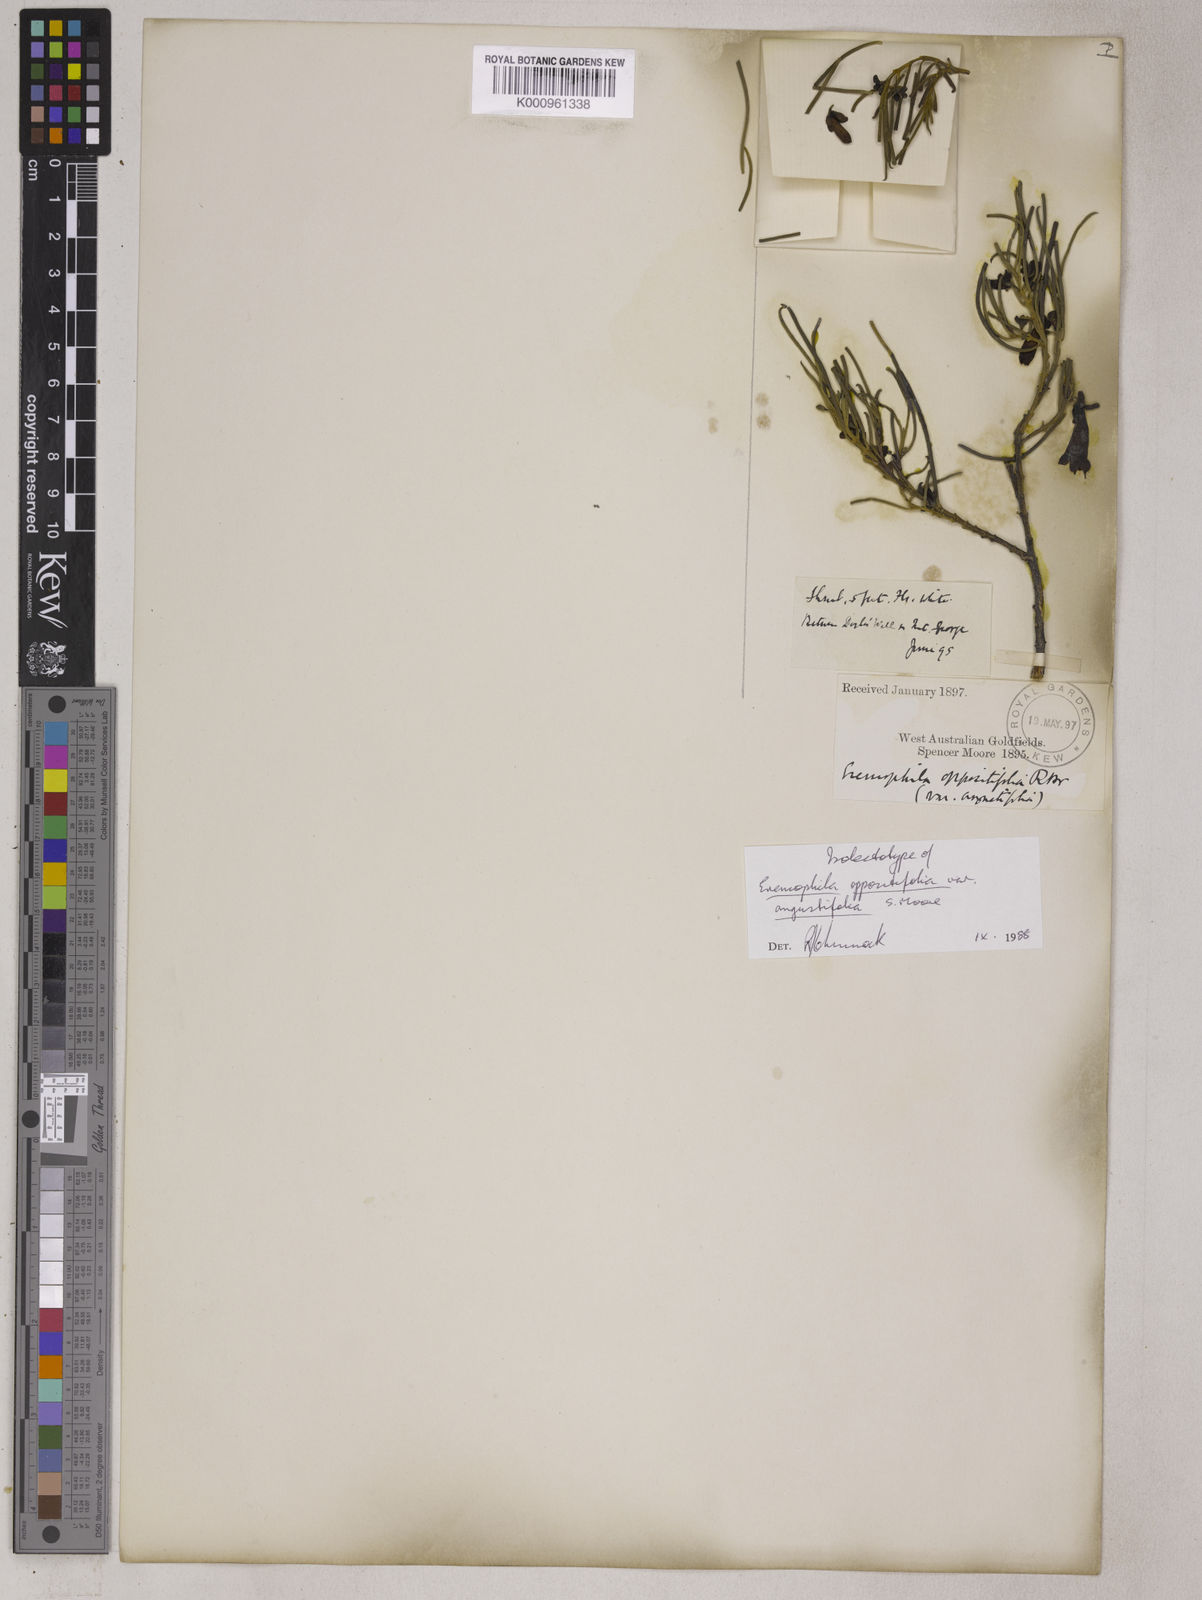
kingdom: Plantae
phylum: Tracheophyta
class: Magnoliopsida
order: Lamiales
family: Scrophulariaceae
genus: Eremophila
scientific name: Eremophila oppositifolia
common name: Mountain-sandalwood
